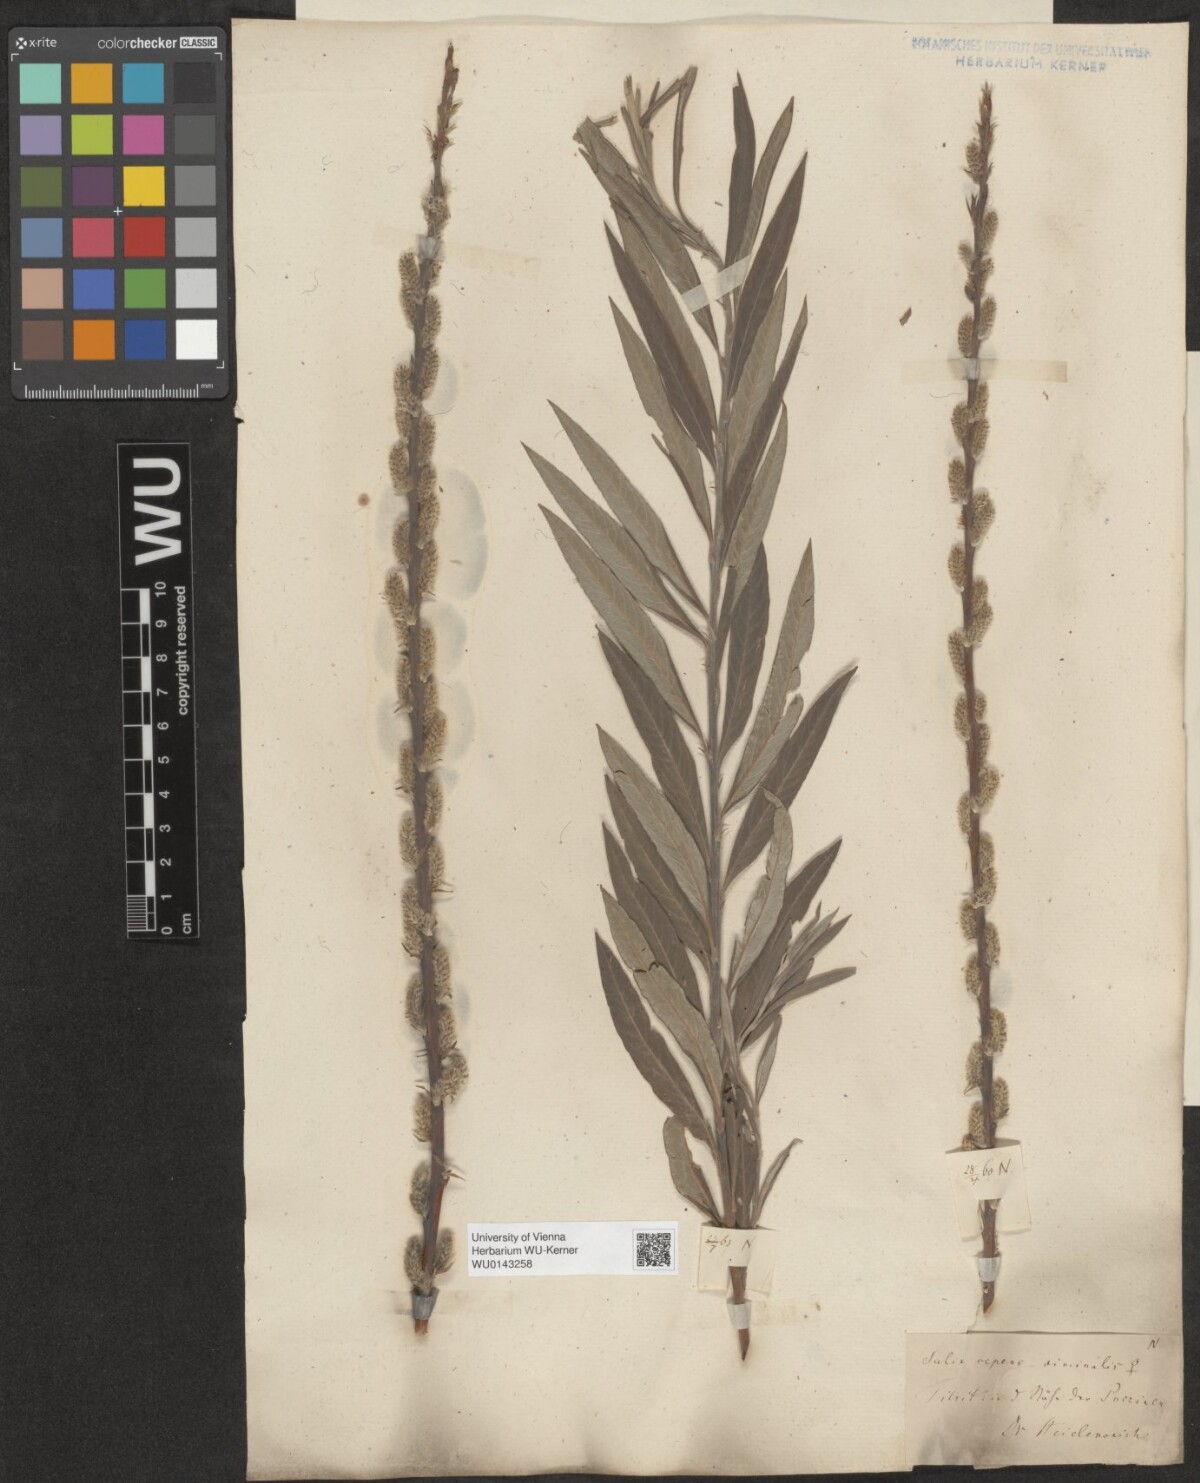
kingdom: Plantae
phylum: Tracheophyta
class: Magnoliopsida
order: Malpighiales
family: Salicaceae
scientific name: Salicaceae
